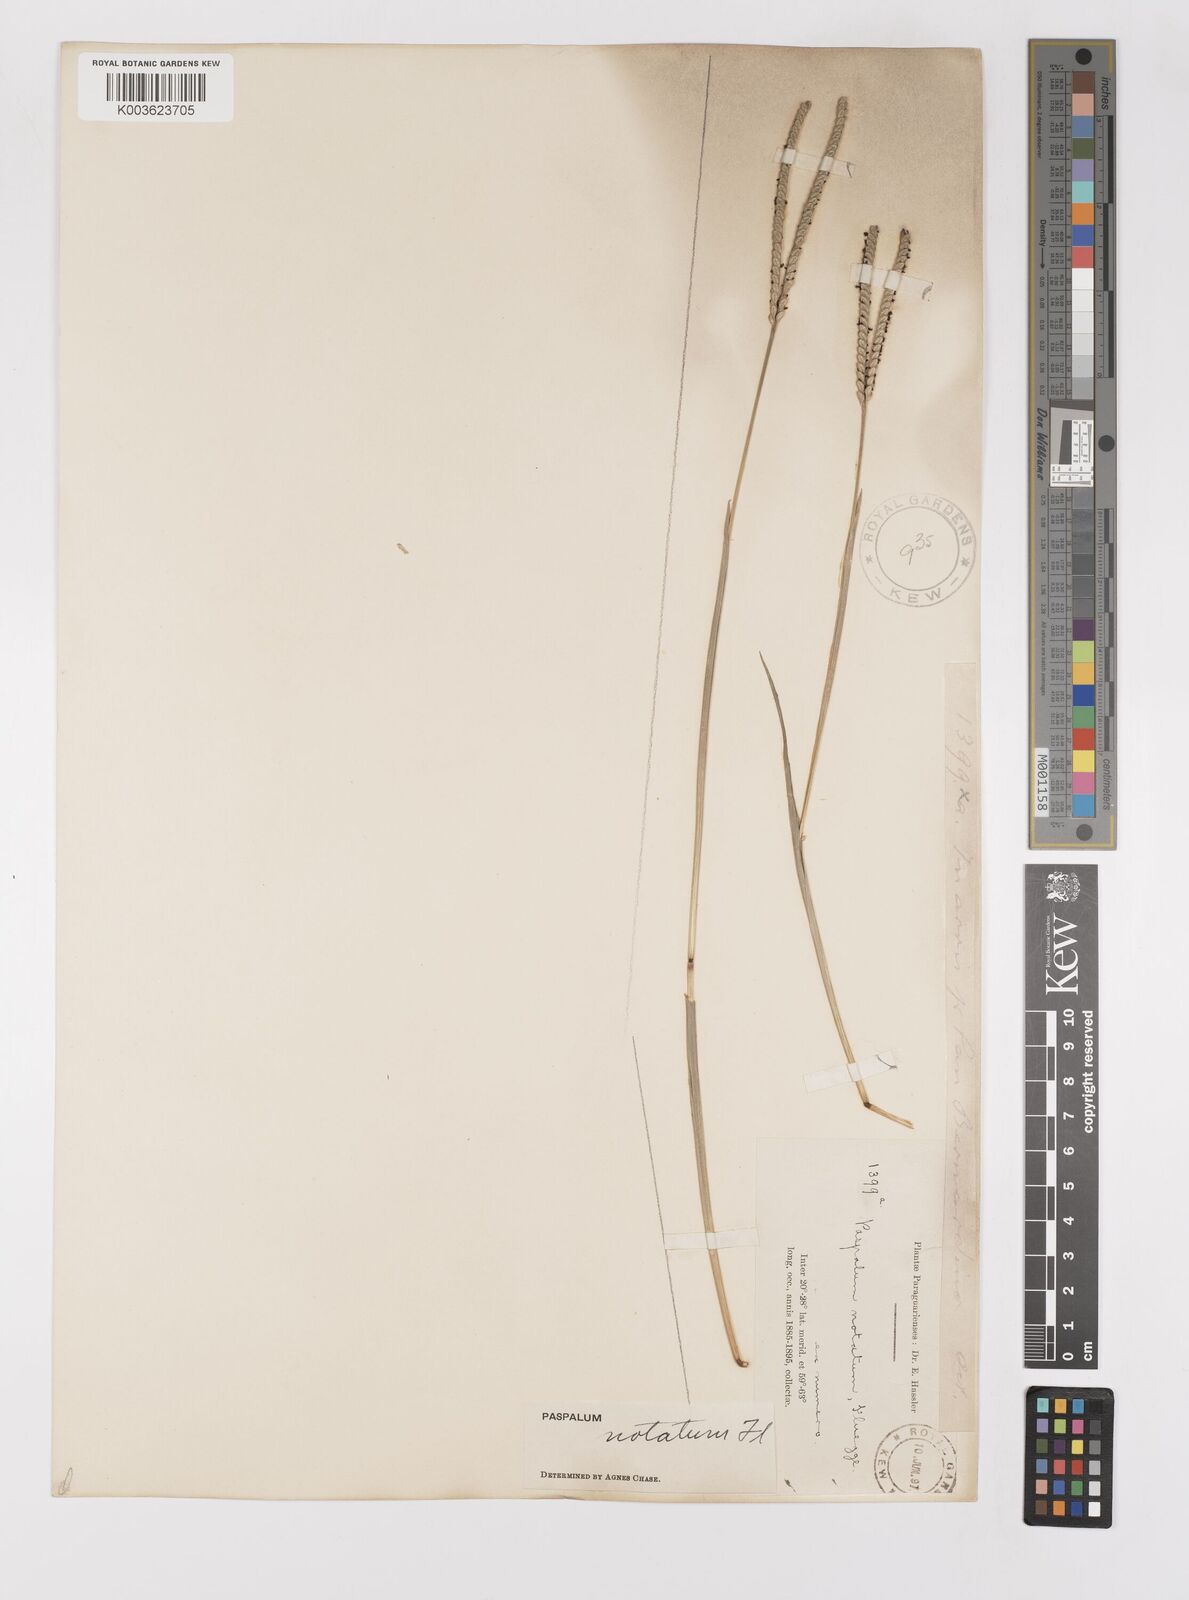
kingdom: Plantae
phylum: Tracheophyta
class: Liliopsida
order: Poales
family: Poaceae
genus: Paspalum
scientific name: Paspalum notatum
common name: Bahiagrass
